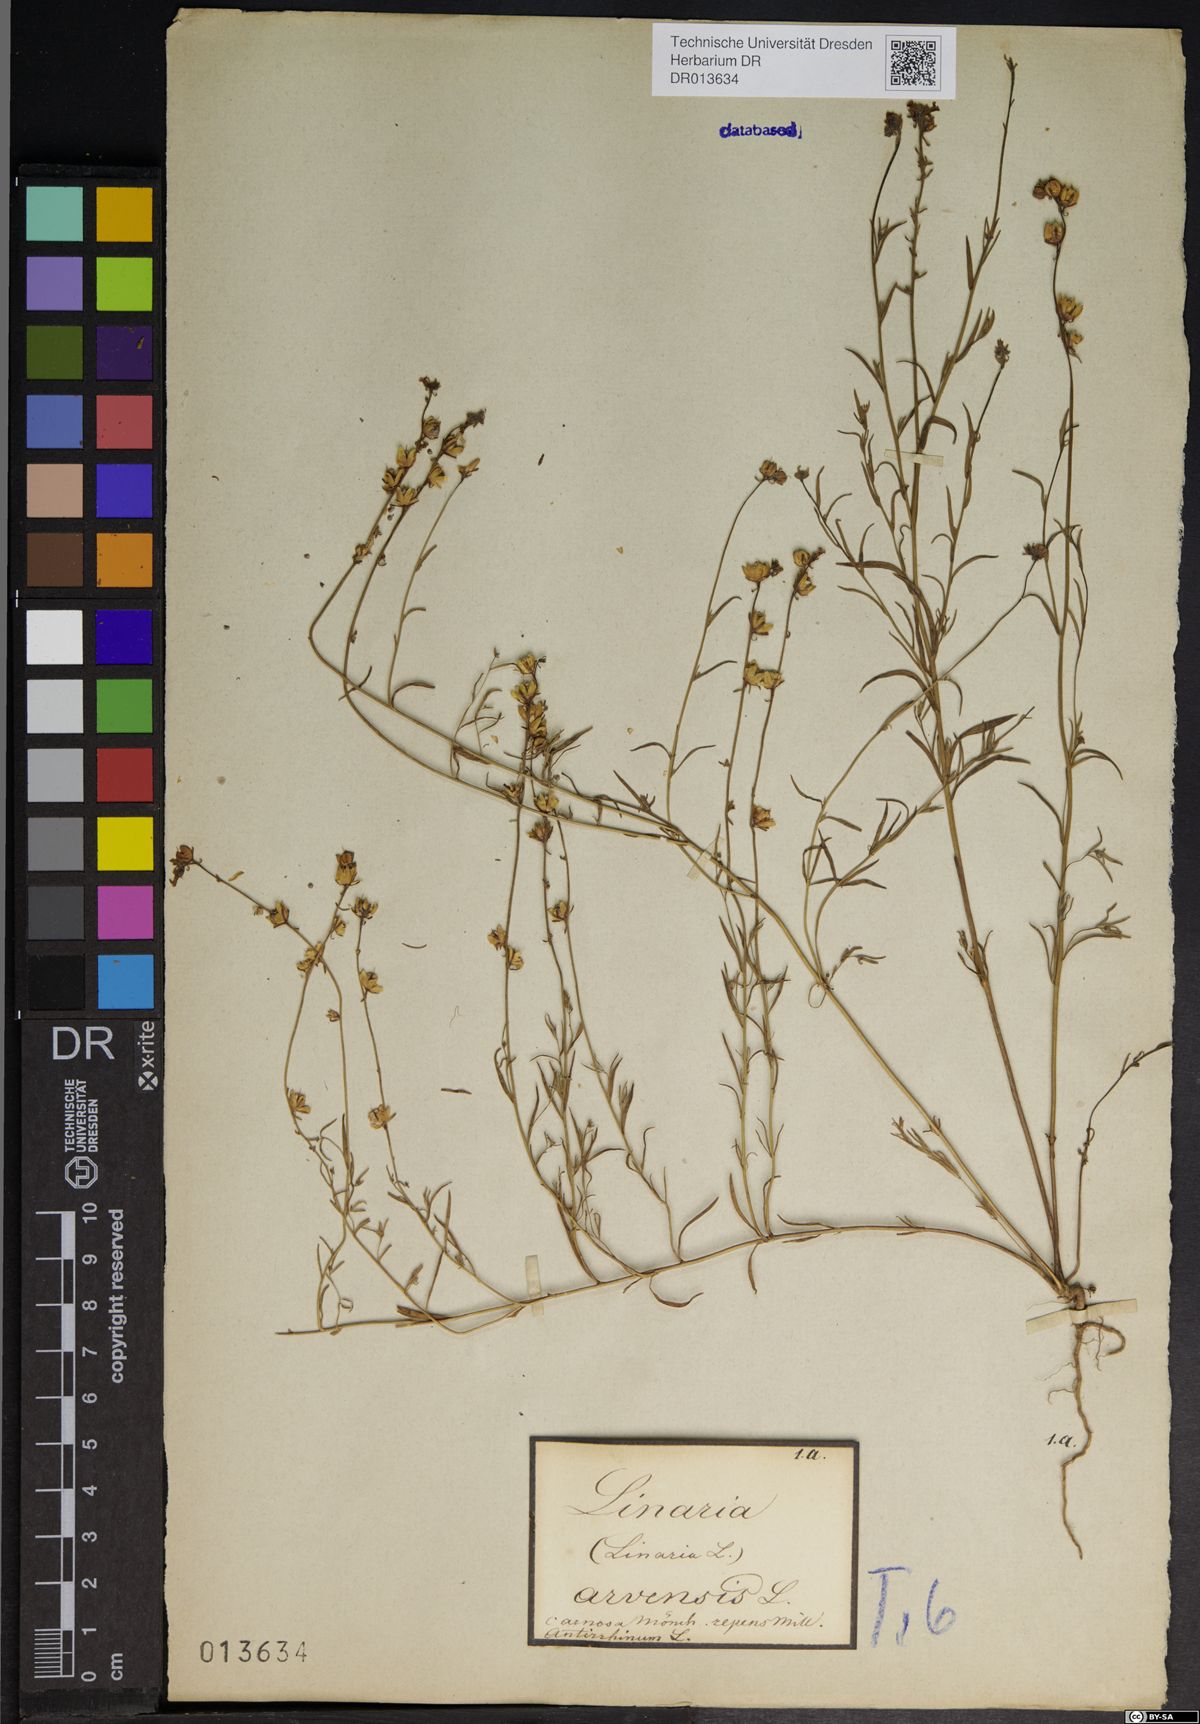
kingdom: Plantae
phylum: Tracheophyta
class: Magnoliopsida
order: Lamiales
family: Plantaginaceae
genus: Linaria
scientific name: Linaria arvensis
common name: Corn toadflax
